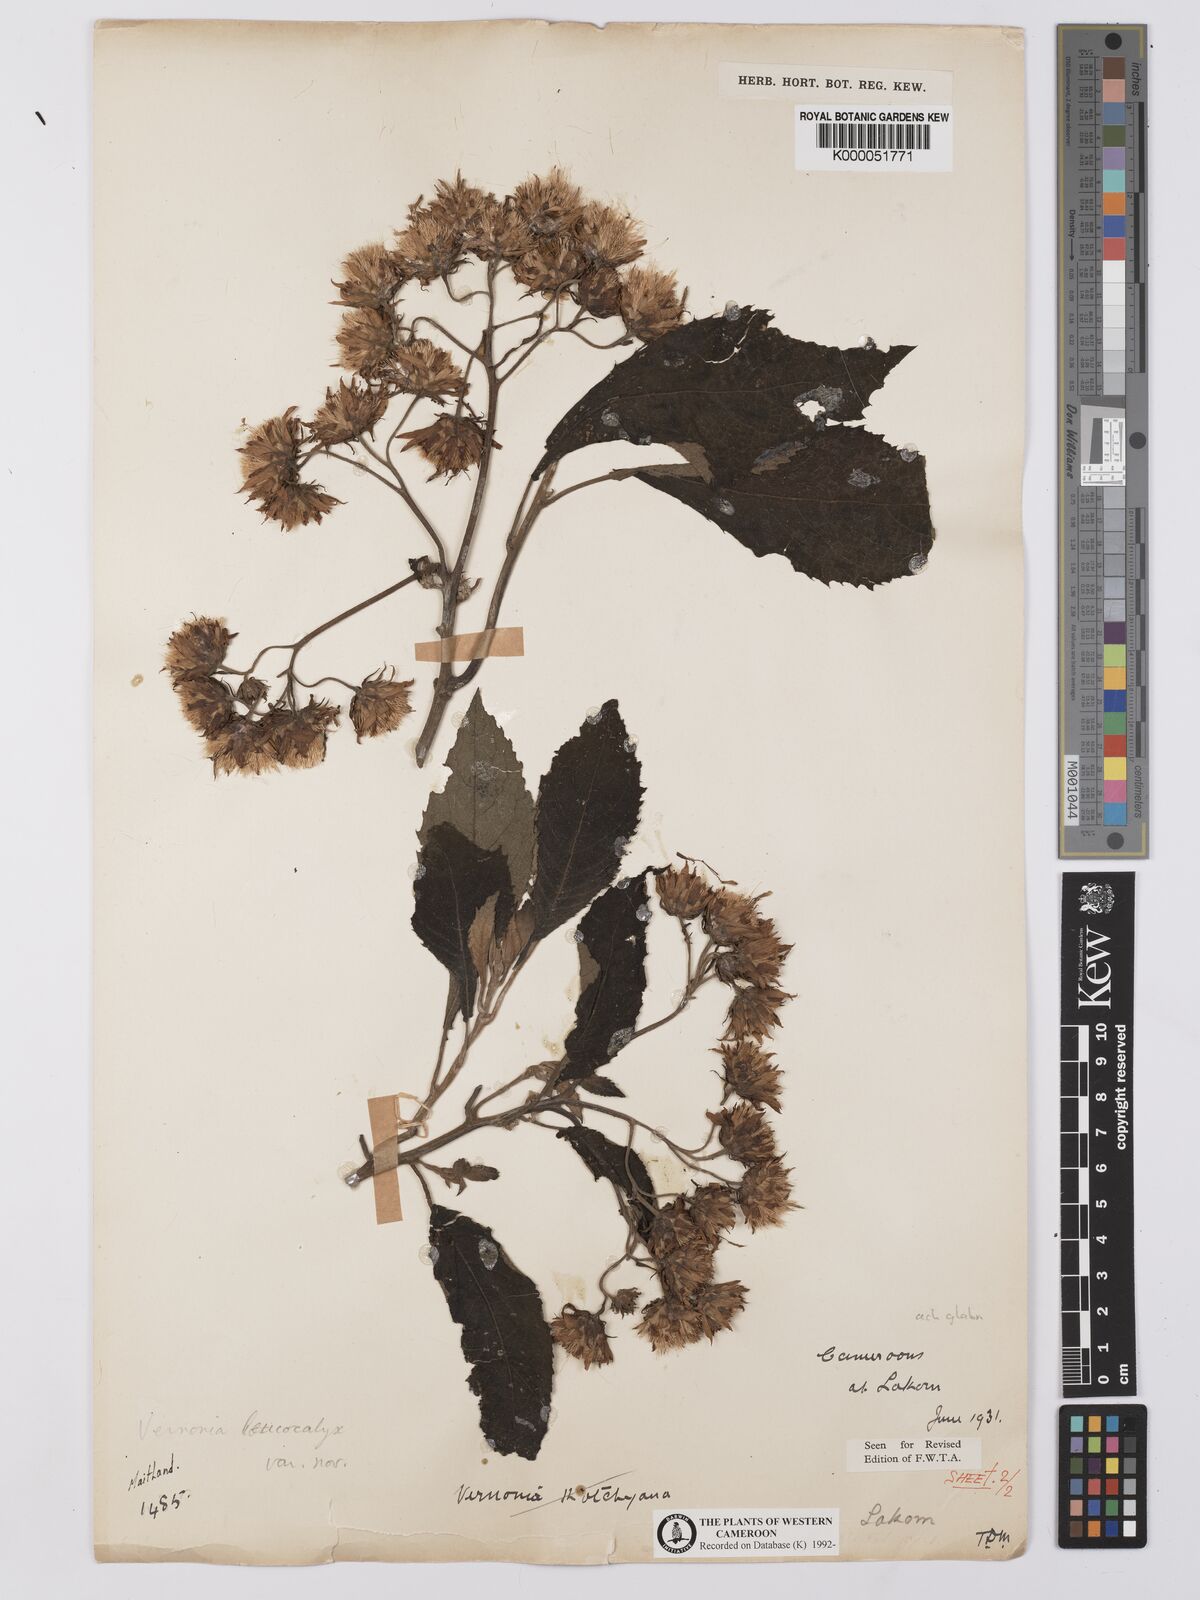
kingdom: Plantae
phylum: Tracheophyta
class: Magnoliopsida
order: Asterales
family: Asteraceae
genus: Baccharoides
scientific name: Baccharoides calvoana
